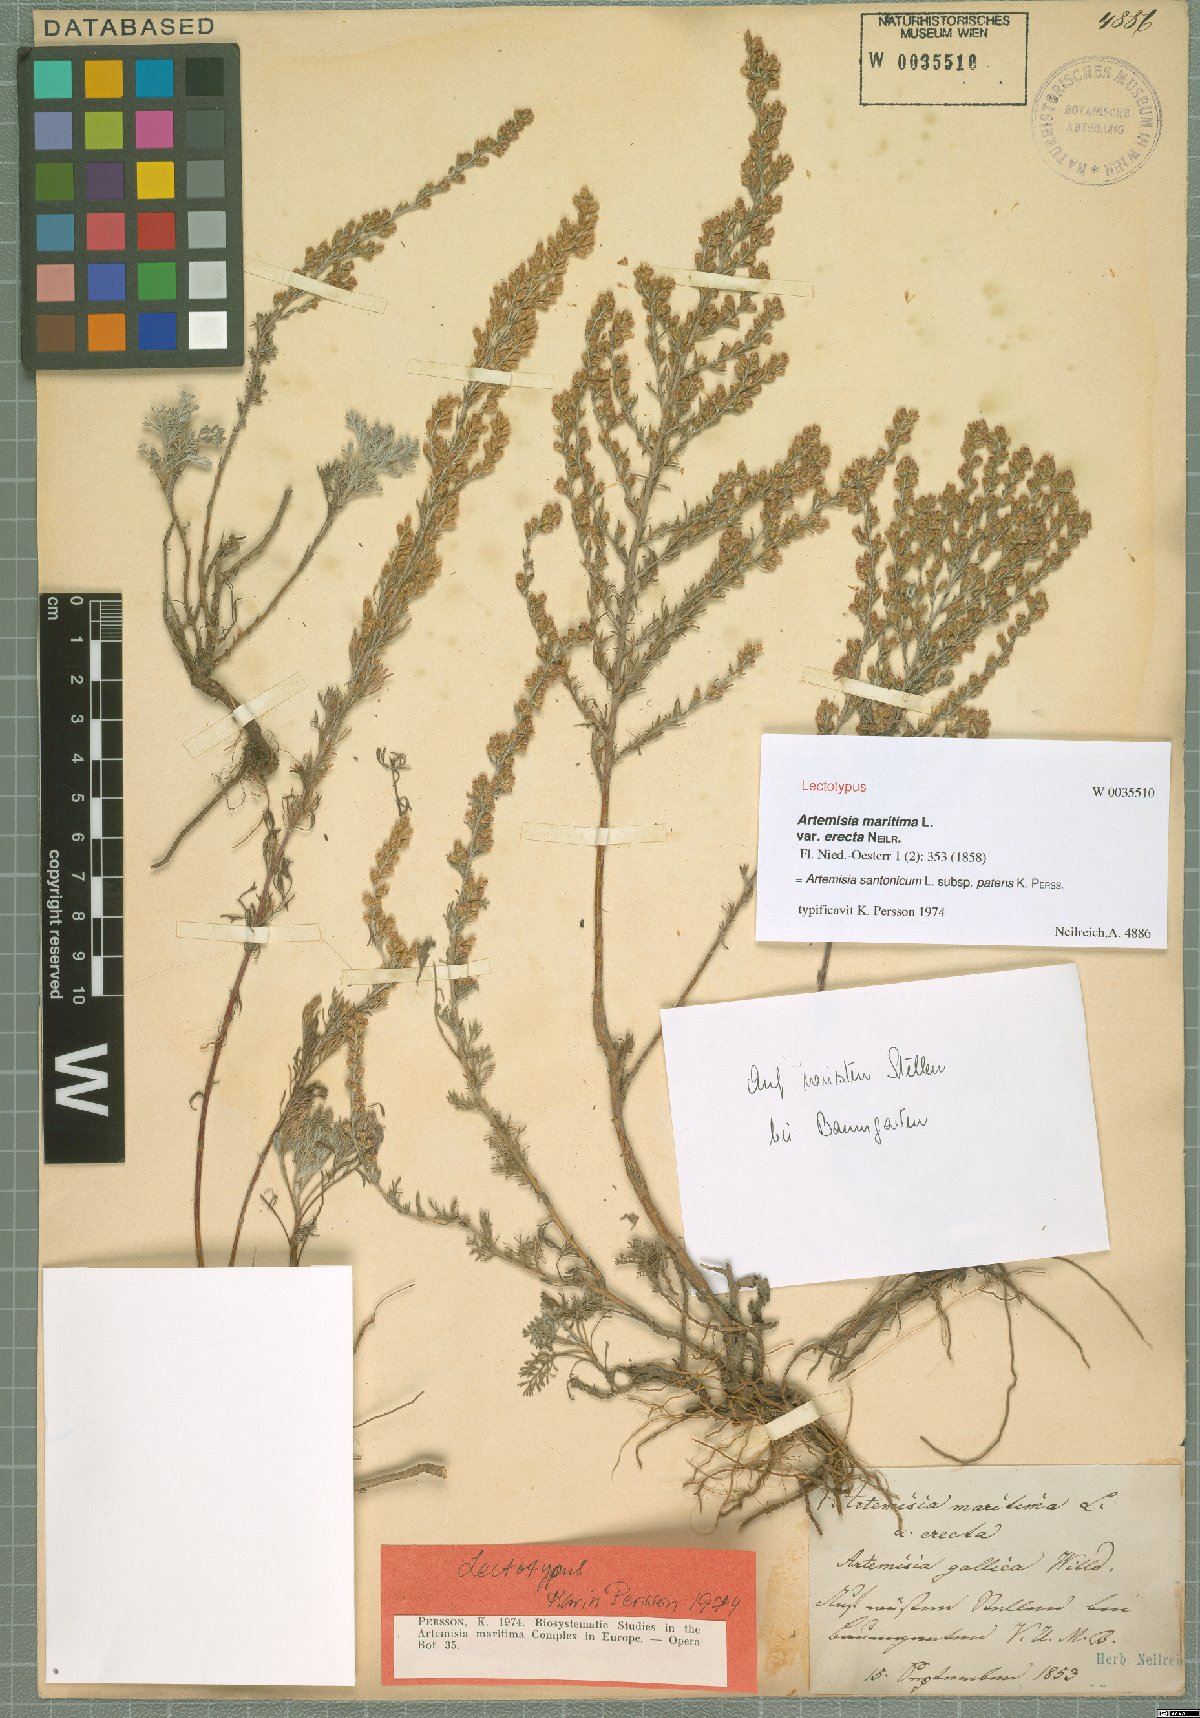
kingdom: Plantae
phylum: Tracheophyta
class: Magnoliopsida
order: Asterales
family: Asteraceae
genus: Artemisia
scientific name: Artemisia santonicum
